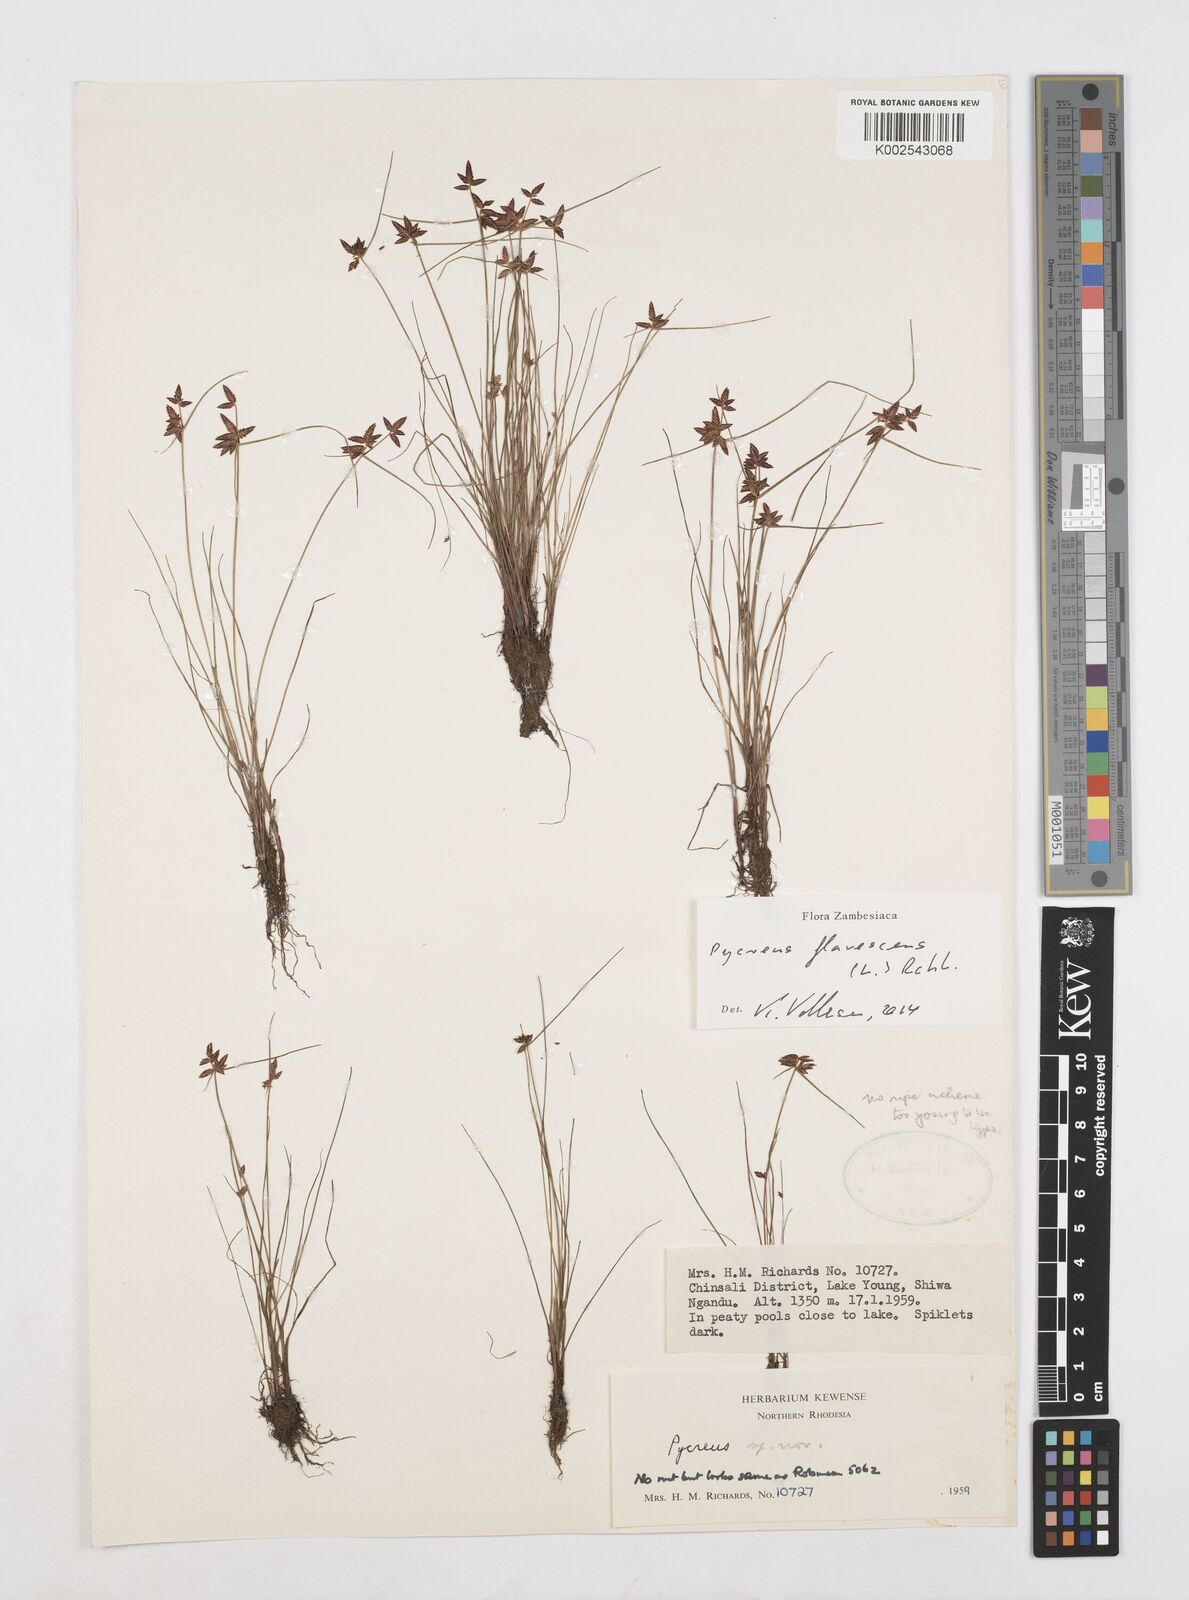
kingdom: Plantae
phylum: Tracheophyta
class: Liliopsida
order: Poales
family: Cyperaceae
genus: Cyperus
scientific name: Cyperus flavescens
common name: Yellow galingale
